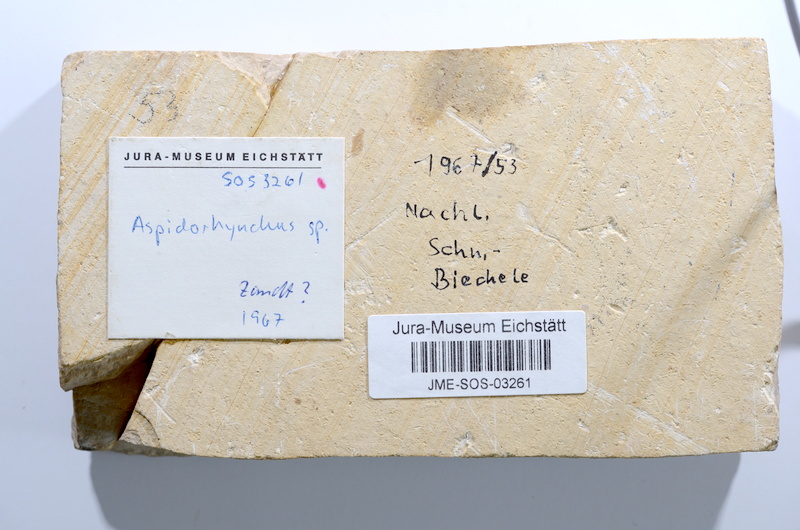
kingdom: Animalia
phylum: Chordata
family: Aspidorhynchidae
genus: Aspidorhynchus
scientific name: Aspidorhynchus acutirostris
